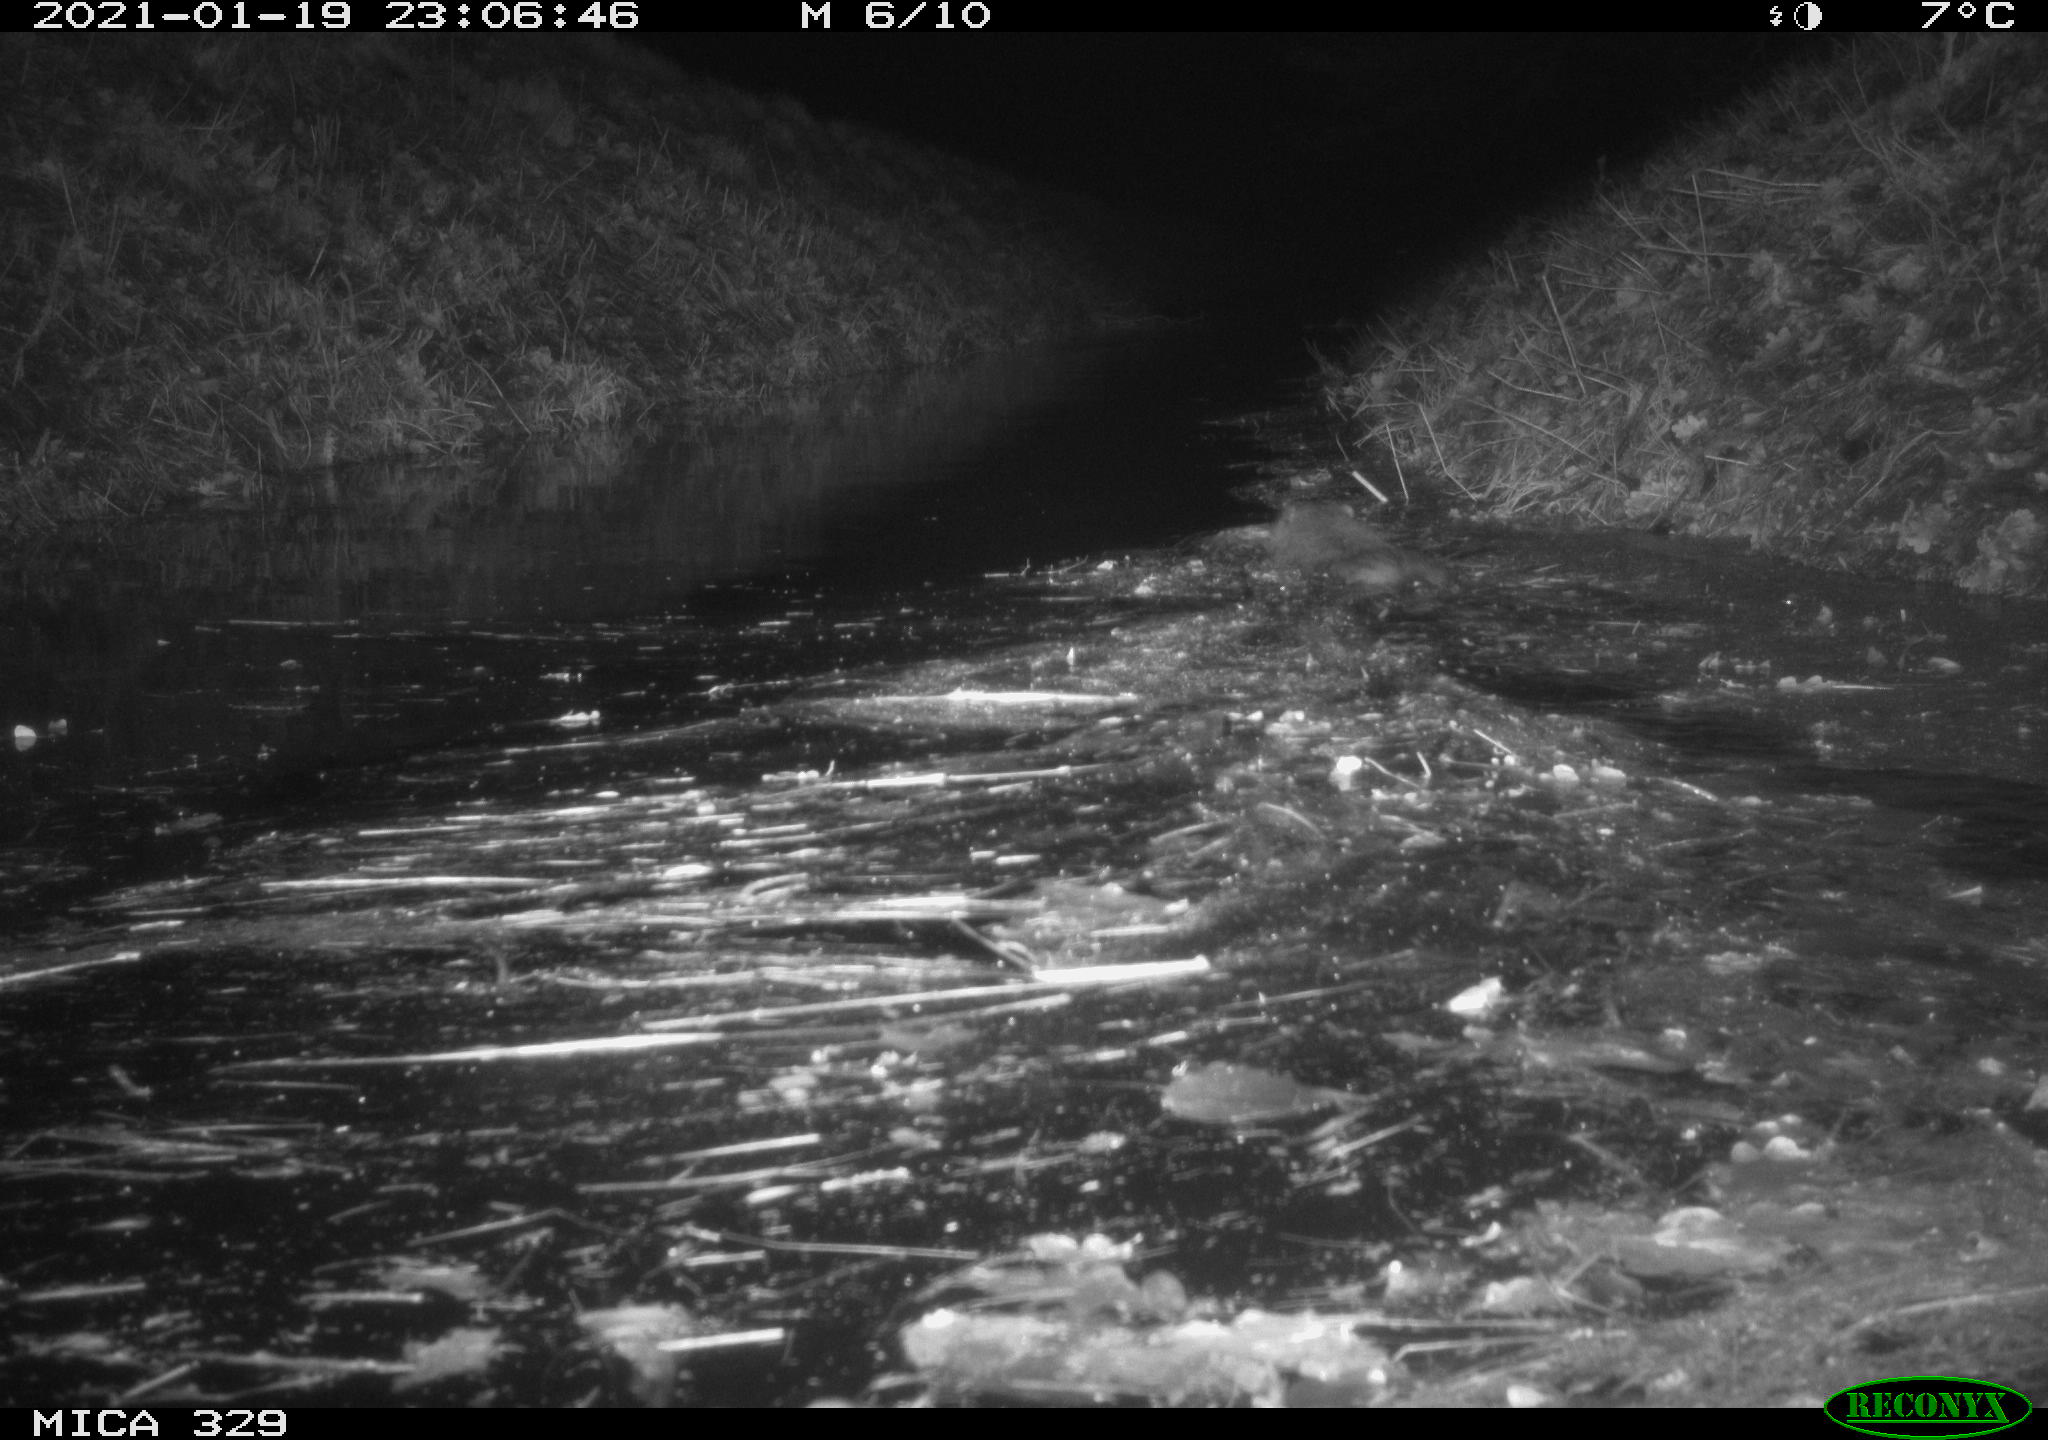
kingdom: Animalia
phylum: Chordata
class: Mammalia
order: Rodentia
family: Myocastoridae
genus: Myocastor
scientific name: Myocastor coypus
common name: Coypu
